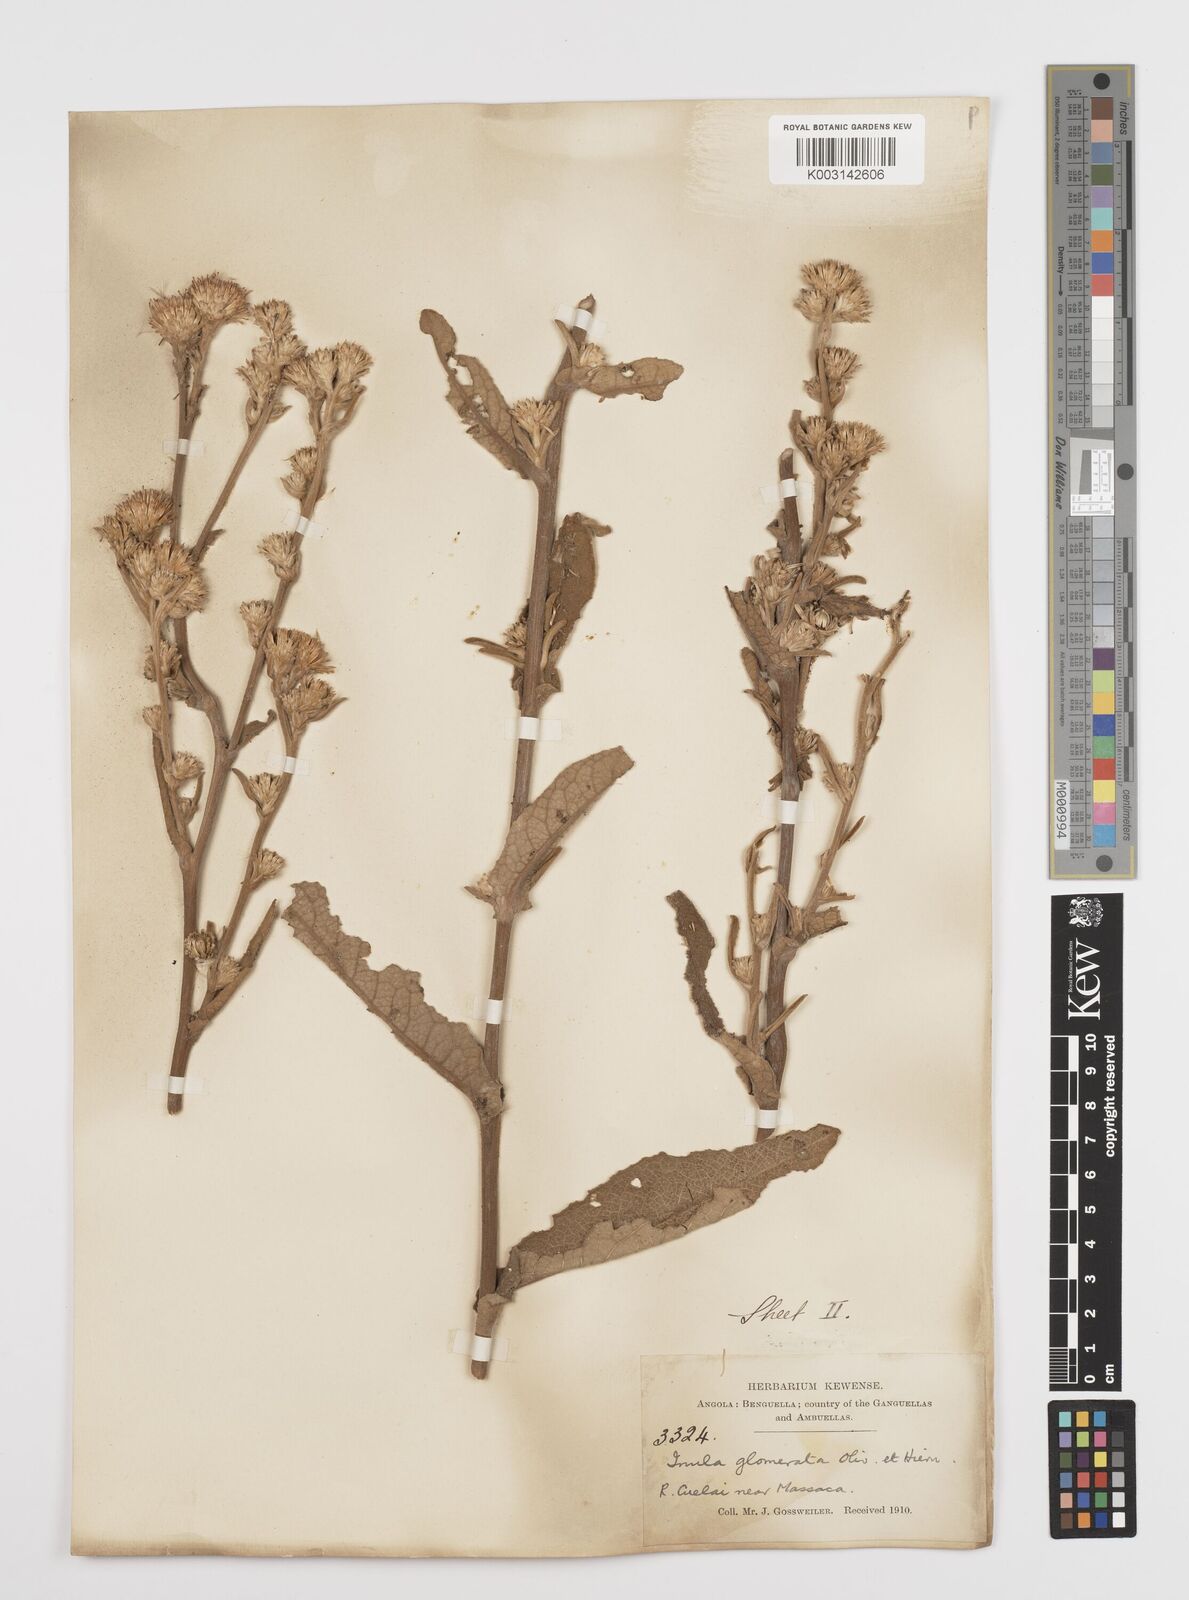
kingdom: Plantae
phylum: Tracheophyta
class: Magnoliopsida
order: Asterales
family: Asteraceae
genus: Inula
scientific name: Inula glomerata
